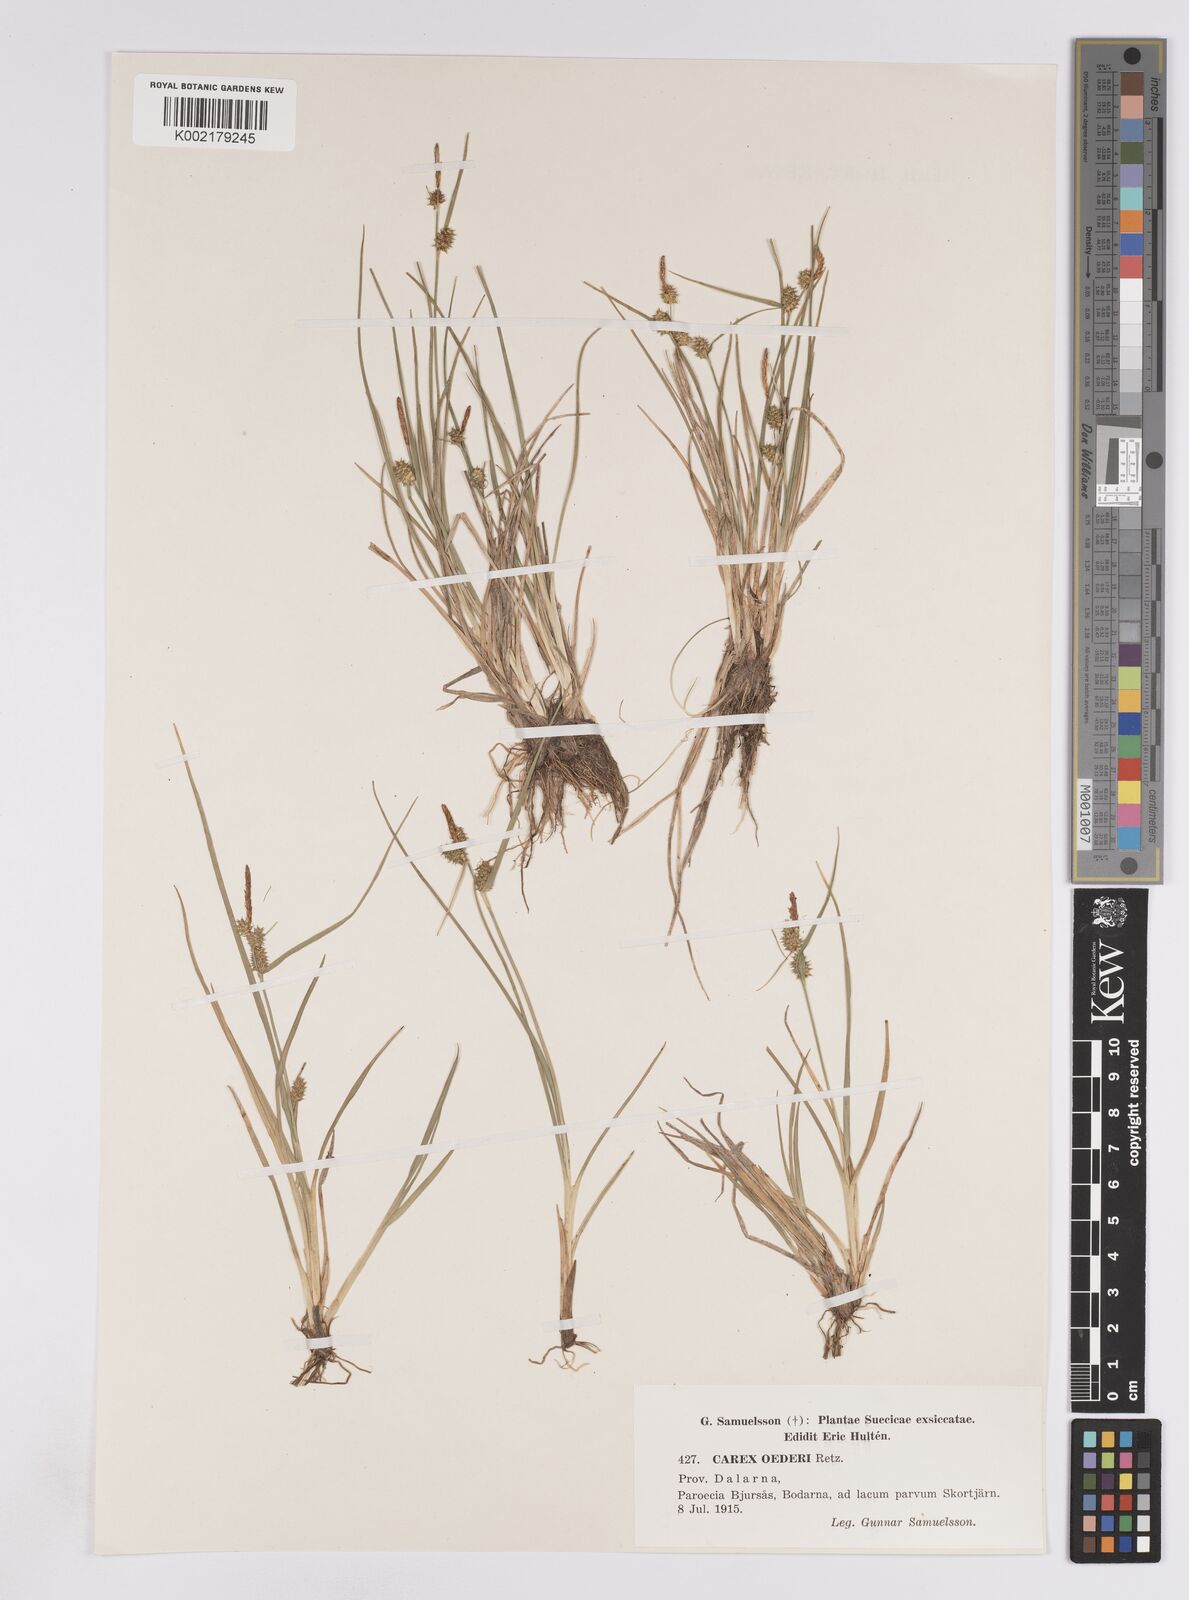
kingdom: Plantae
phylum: Tracheophyta
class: Liliopsida
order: Poales
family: Cyperaceae
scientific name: Cyperaceae
